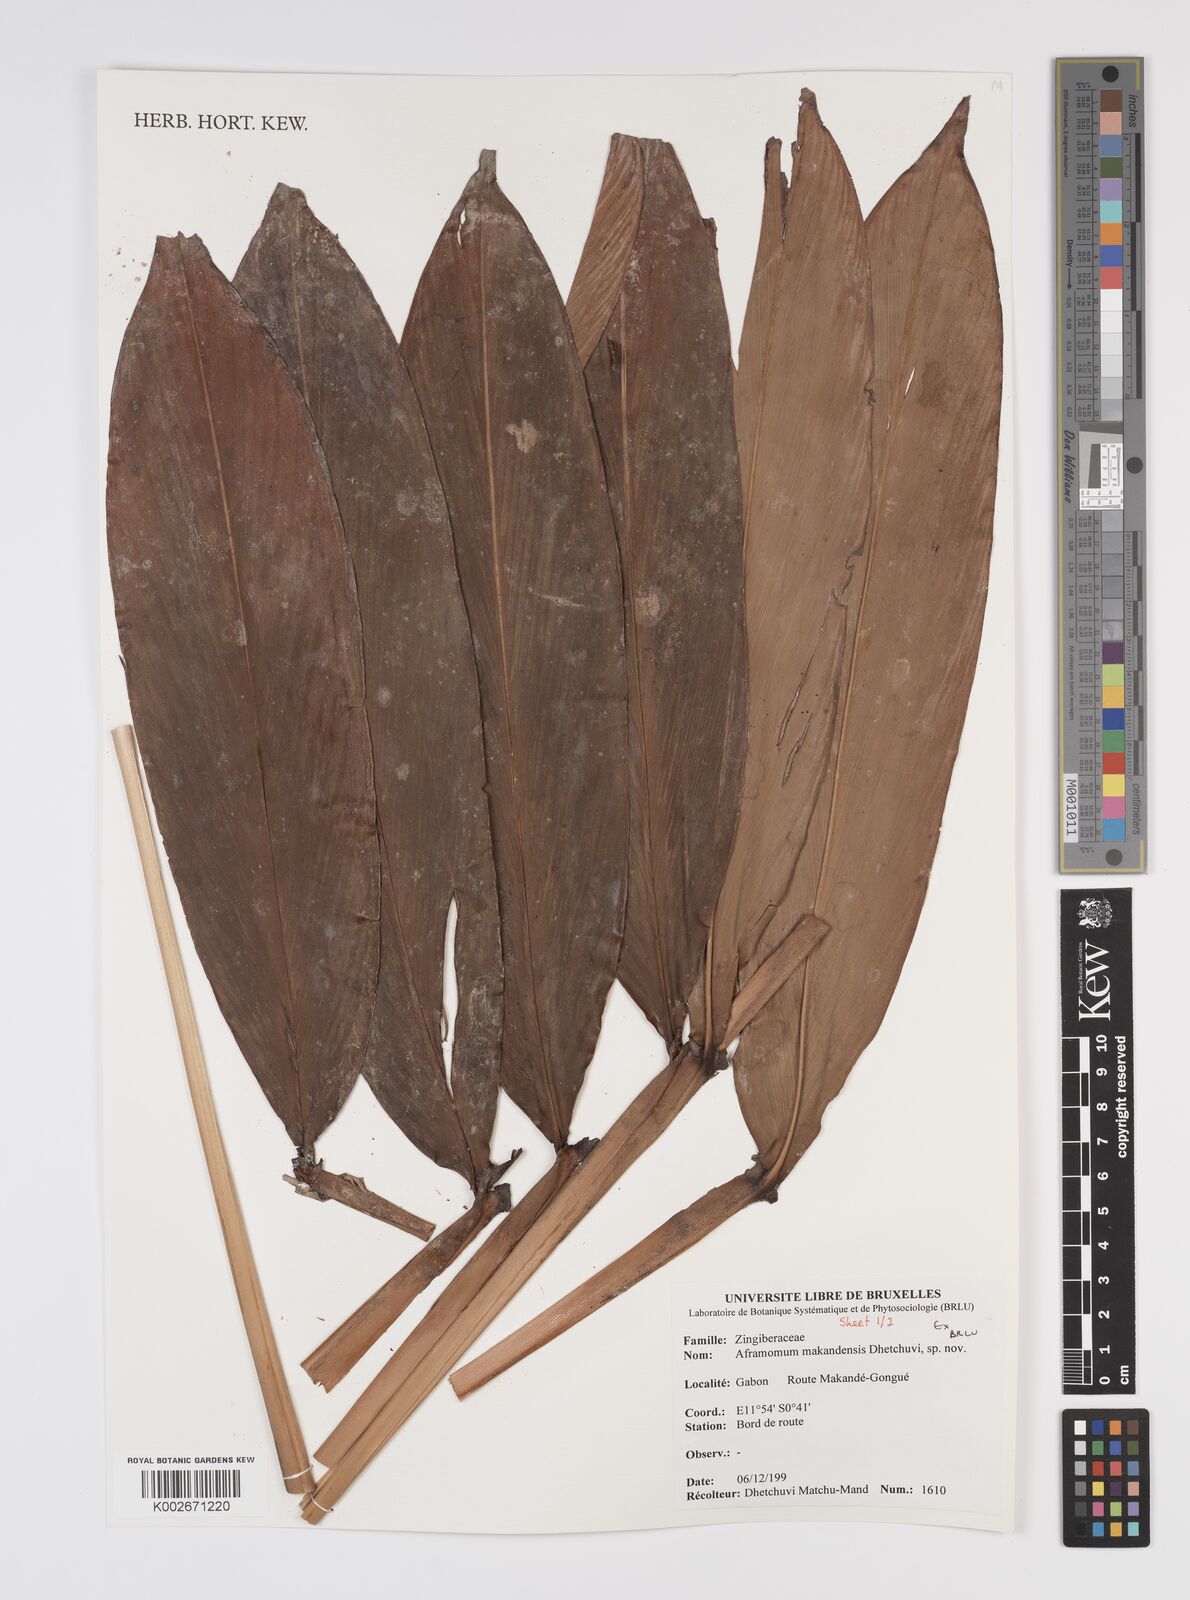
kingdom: Plantae
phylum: Tracheophyta
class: Liliopsida
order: Zingiberales
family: Zingiberaceae
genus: Aframomum
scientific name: Aframomum makandensis
